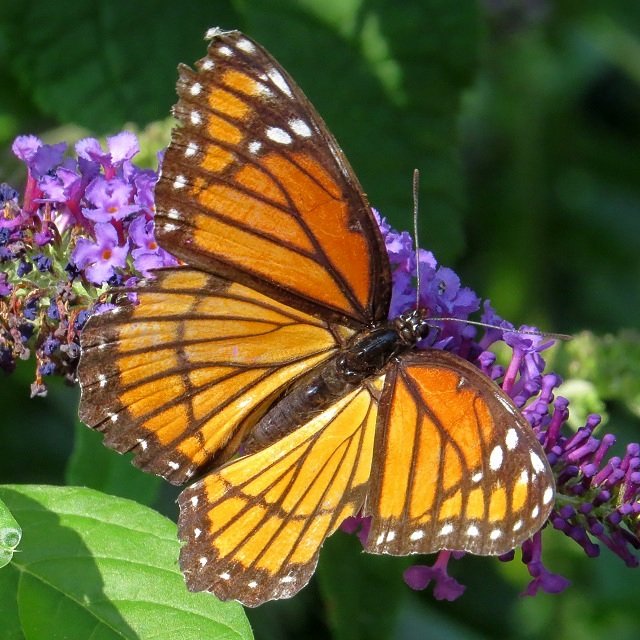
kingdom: Animalia
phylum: Arthropoda
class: Insecta
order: Lepidoptera
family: Nymphalidae
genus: Limenitis
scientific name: Limenitis archippus
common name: Viceroy
